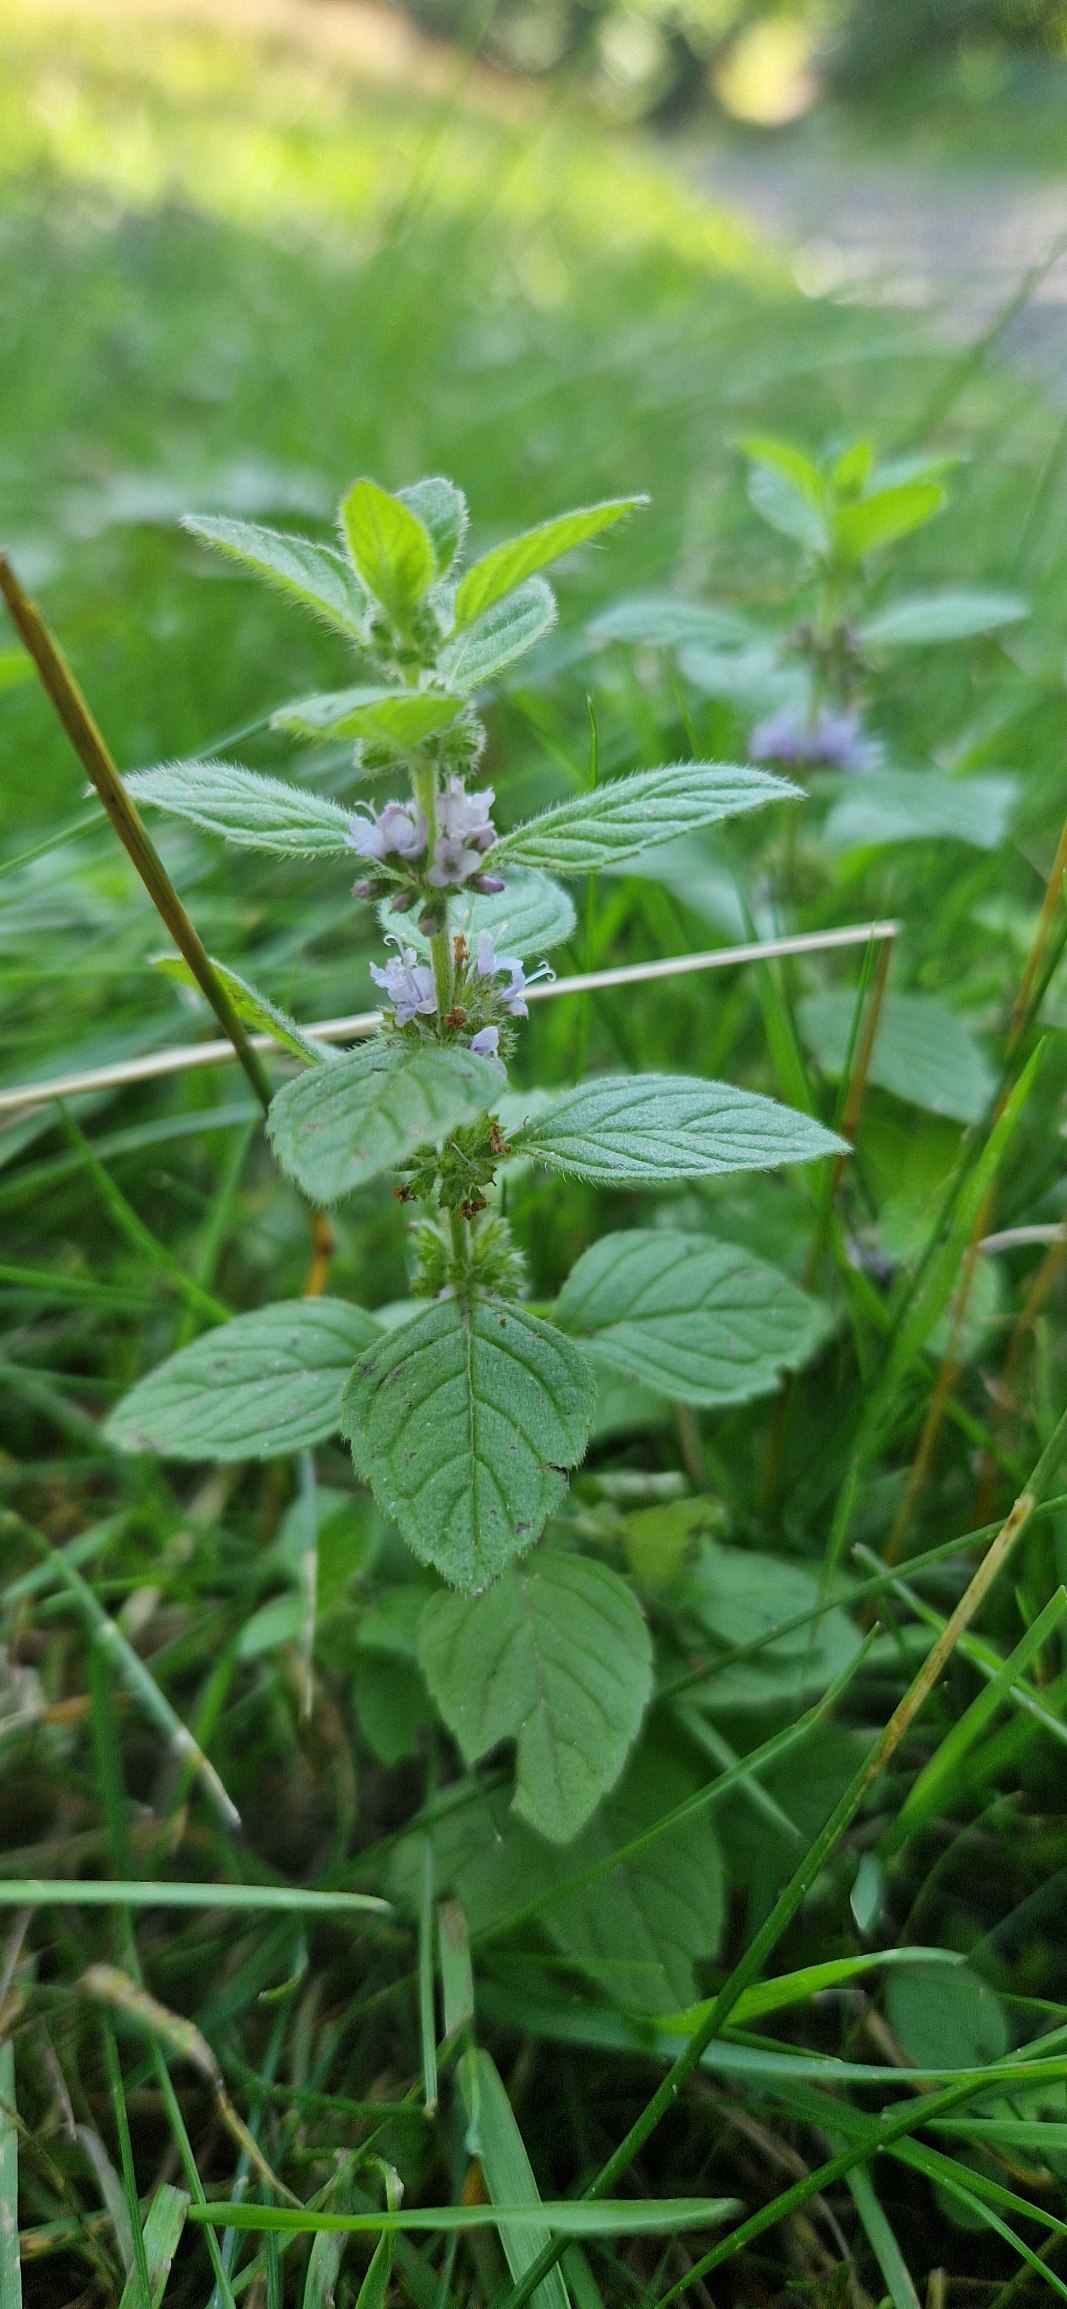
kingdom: Plantae
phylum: Tracheophyta
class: Magnoliopsida
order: Lamiales
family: Lamiaceae
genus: Mentha
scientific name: Mentha arvensis
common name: Ager-mynte
